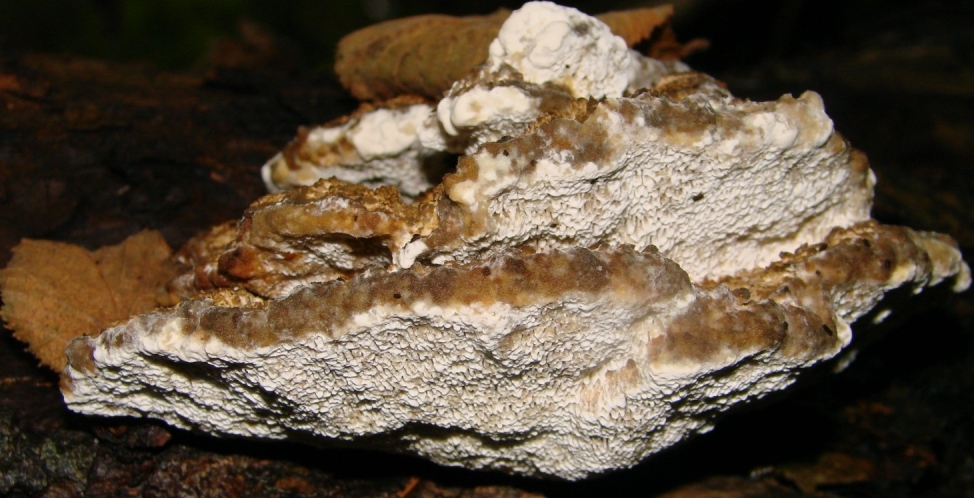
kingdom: Fungi
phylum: Basidiomycota
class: Agaricomycetes
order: Polyporales
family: Polyporaceae
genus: Daedaleopsis
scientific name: Daedaleopsis confragosa
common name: rødmende læderporesvamp
